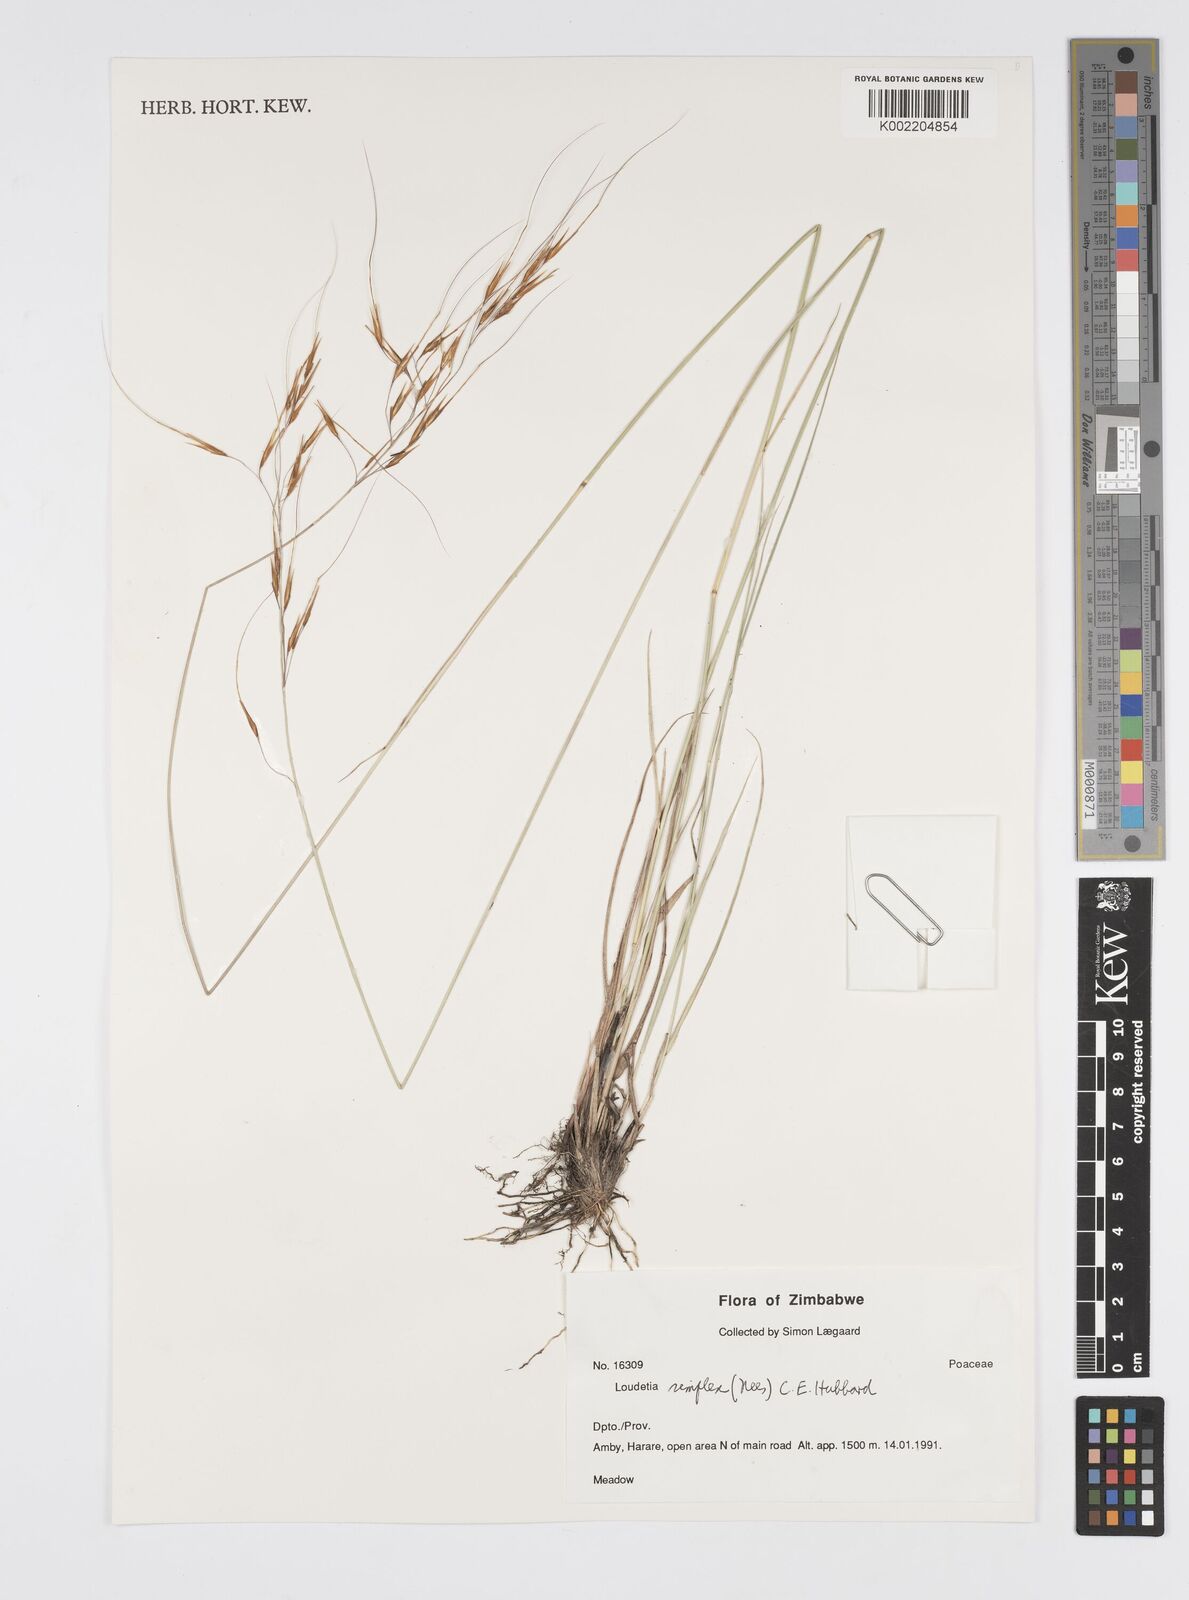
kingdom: Plantae
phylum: Tracheophyta
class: Liliopsida
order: Poales
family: Poaceae
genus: Loudetia
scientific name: Loudetia simplex
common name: Common russet grass
